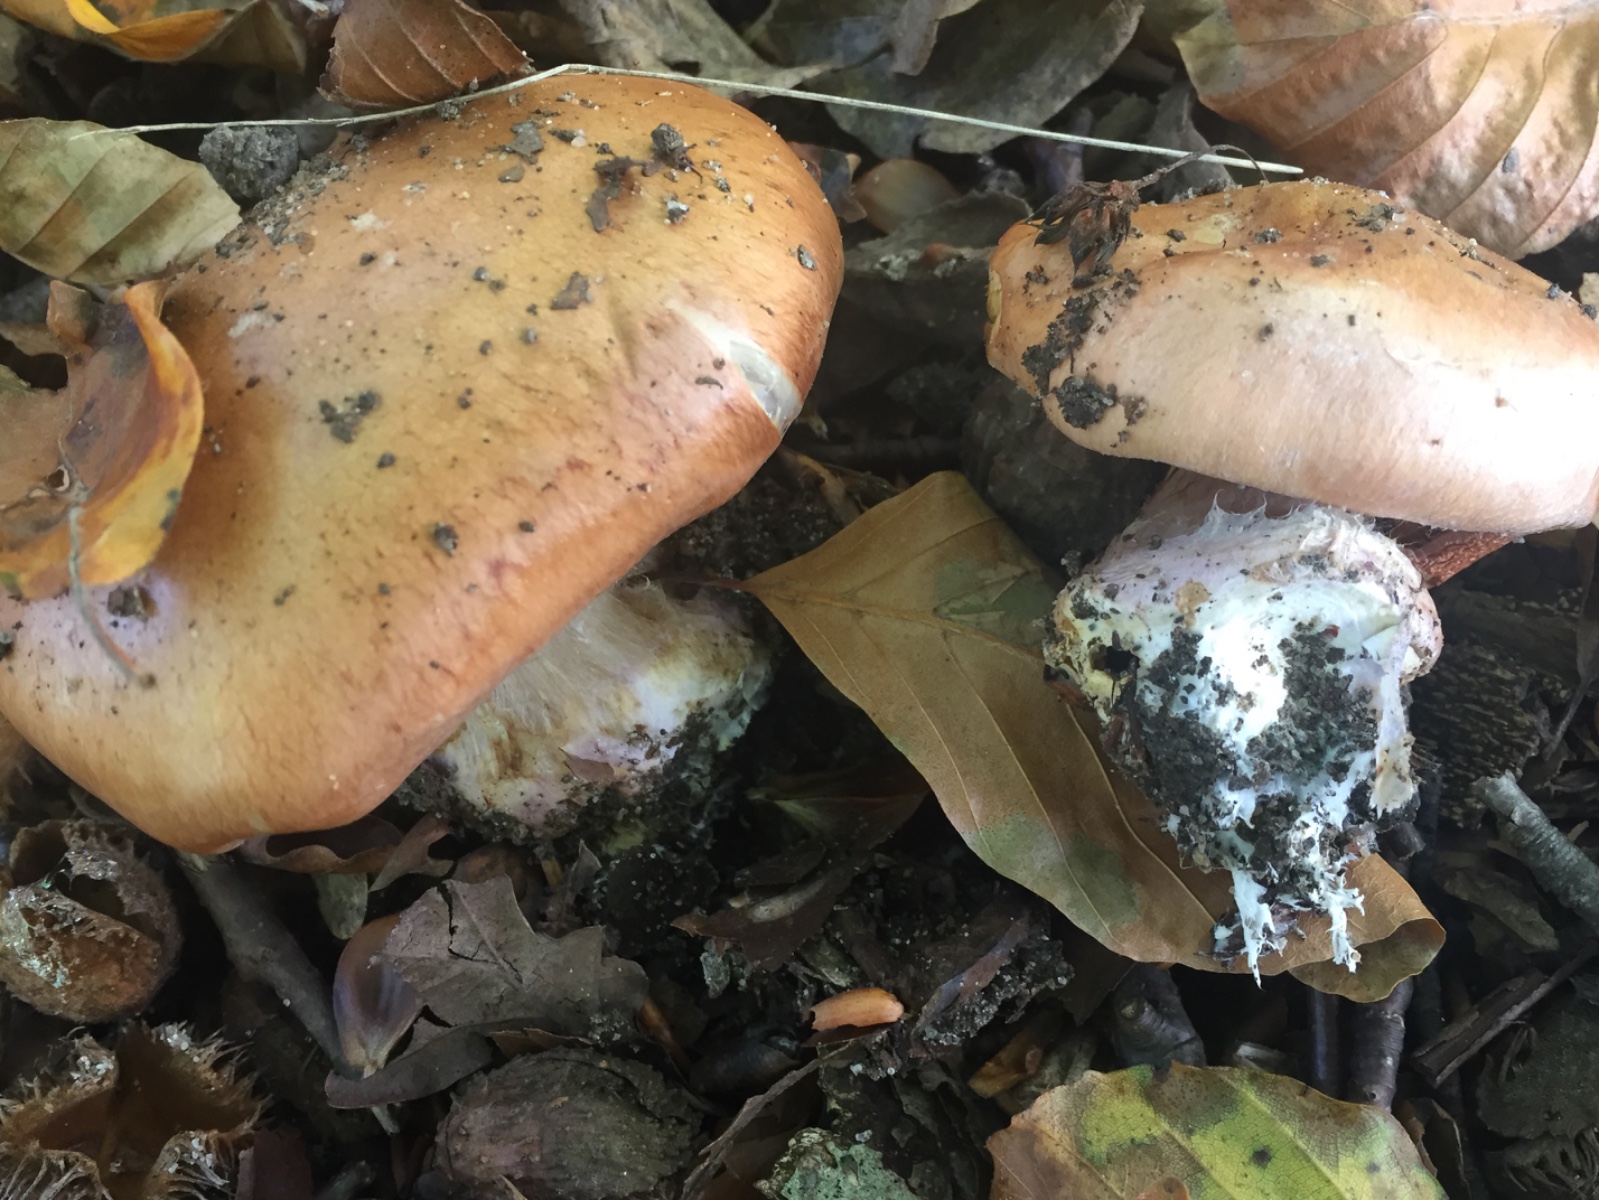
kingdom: Fungi
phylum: Basidiomycota
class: Agaricomycetes
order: Agaricales
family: Cortinariaceae
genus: Calonarius
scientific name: Calonarius arcuatorum
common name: violetflaget slørhat
